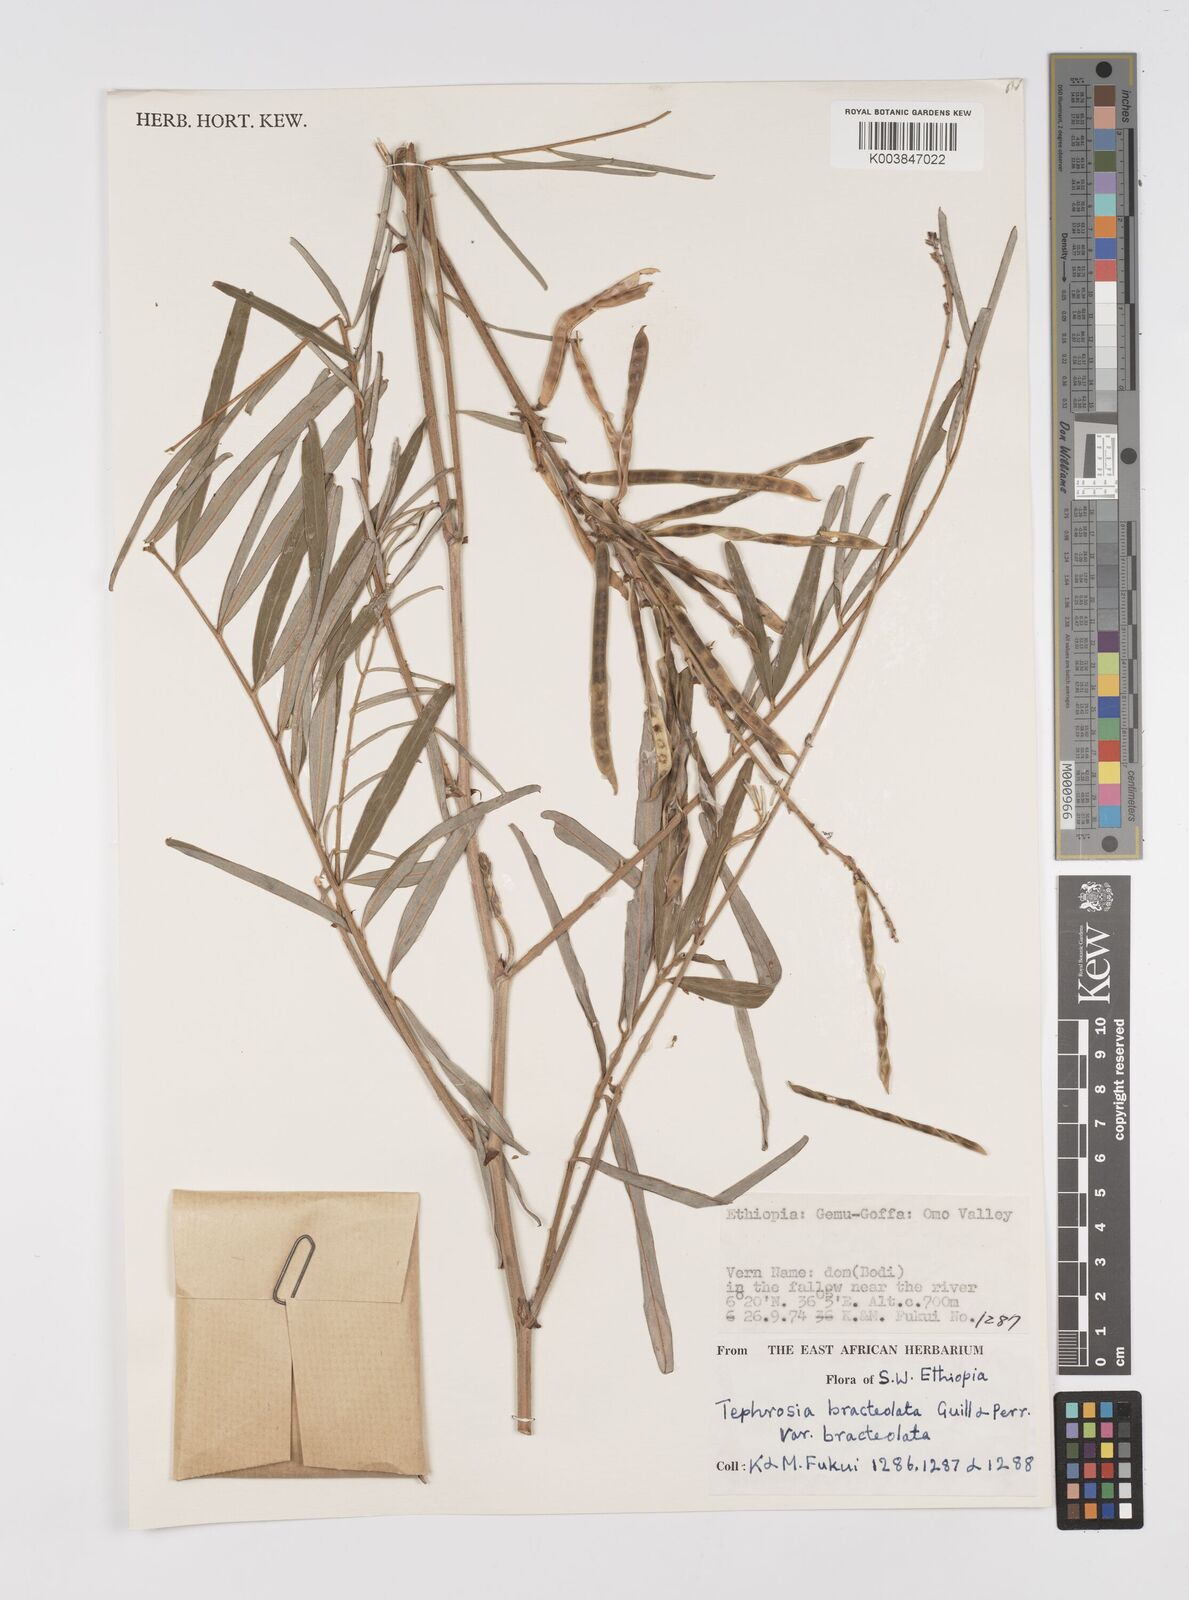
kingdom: Plantae
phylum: Tracheophyta
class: Magnoliopsida
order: Fabales
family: Fabaceae
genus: Tephrosia
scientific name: Tephrosia bracteolata
